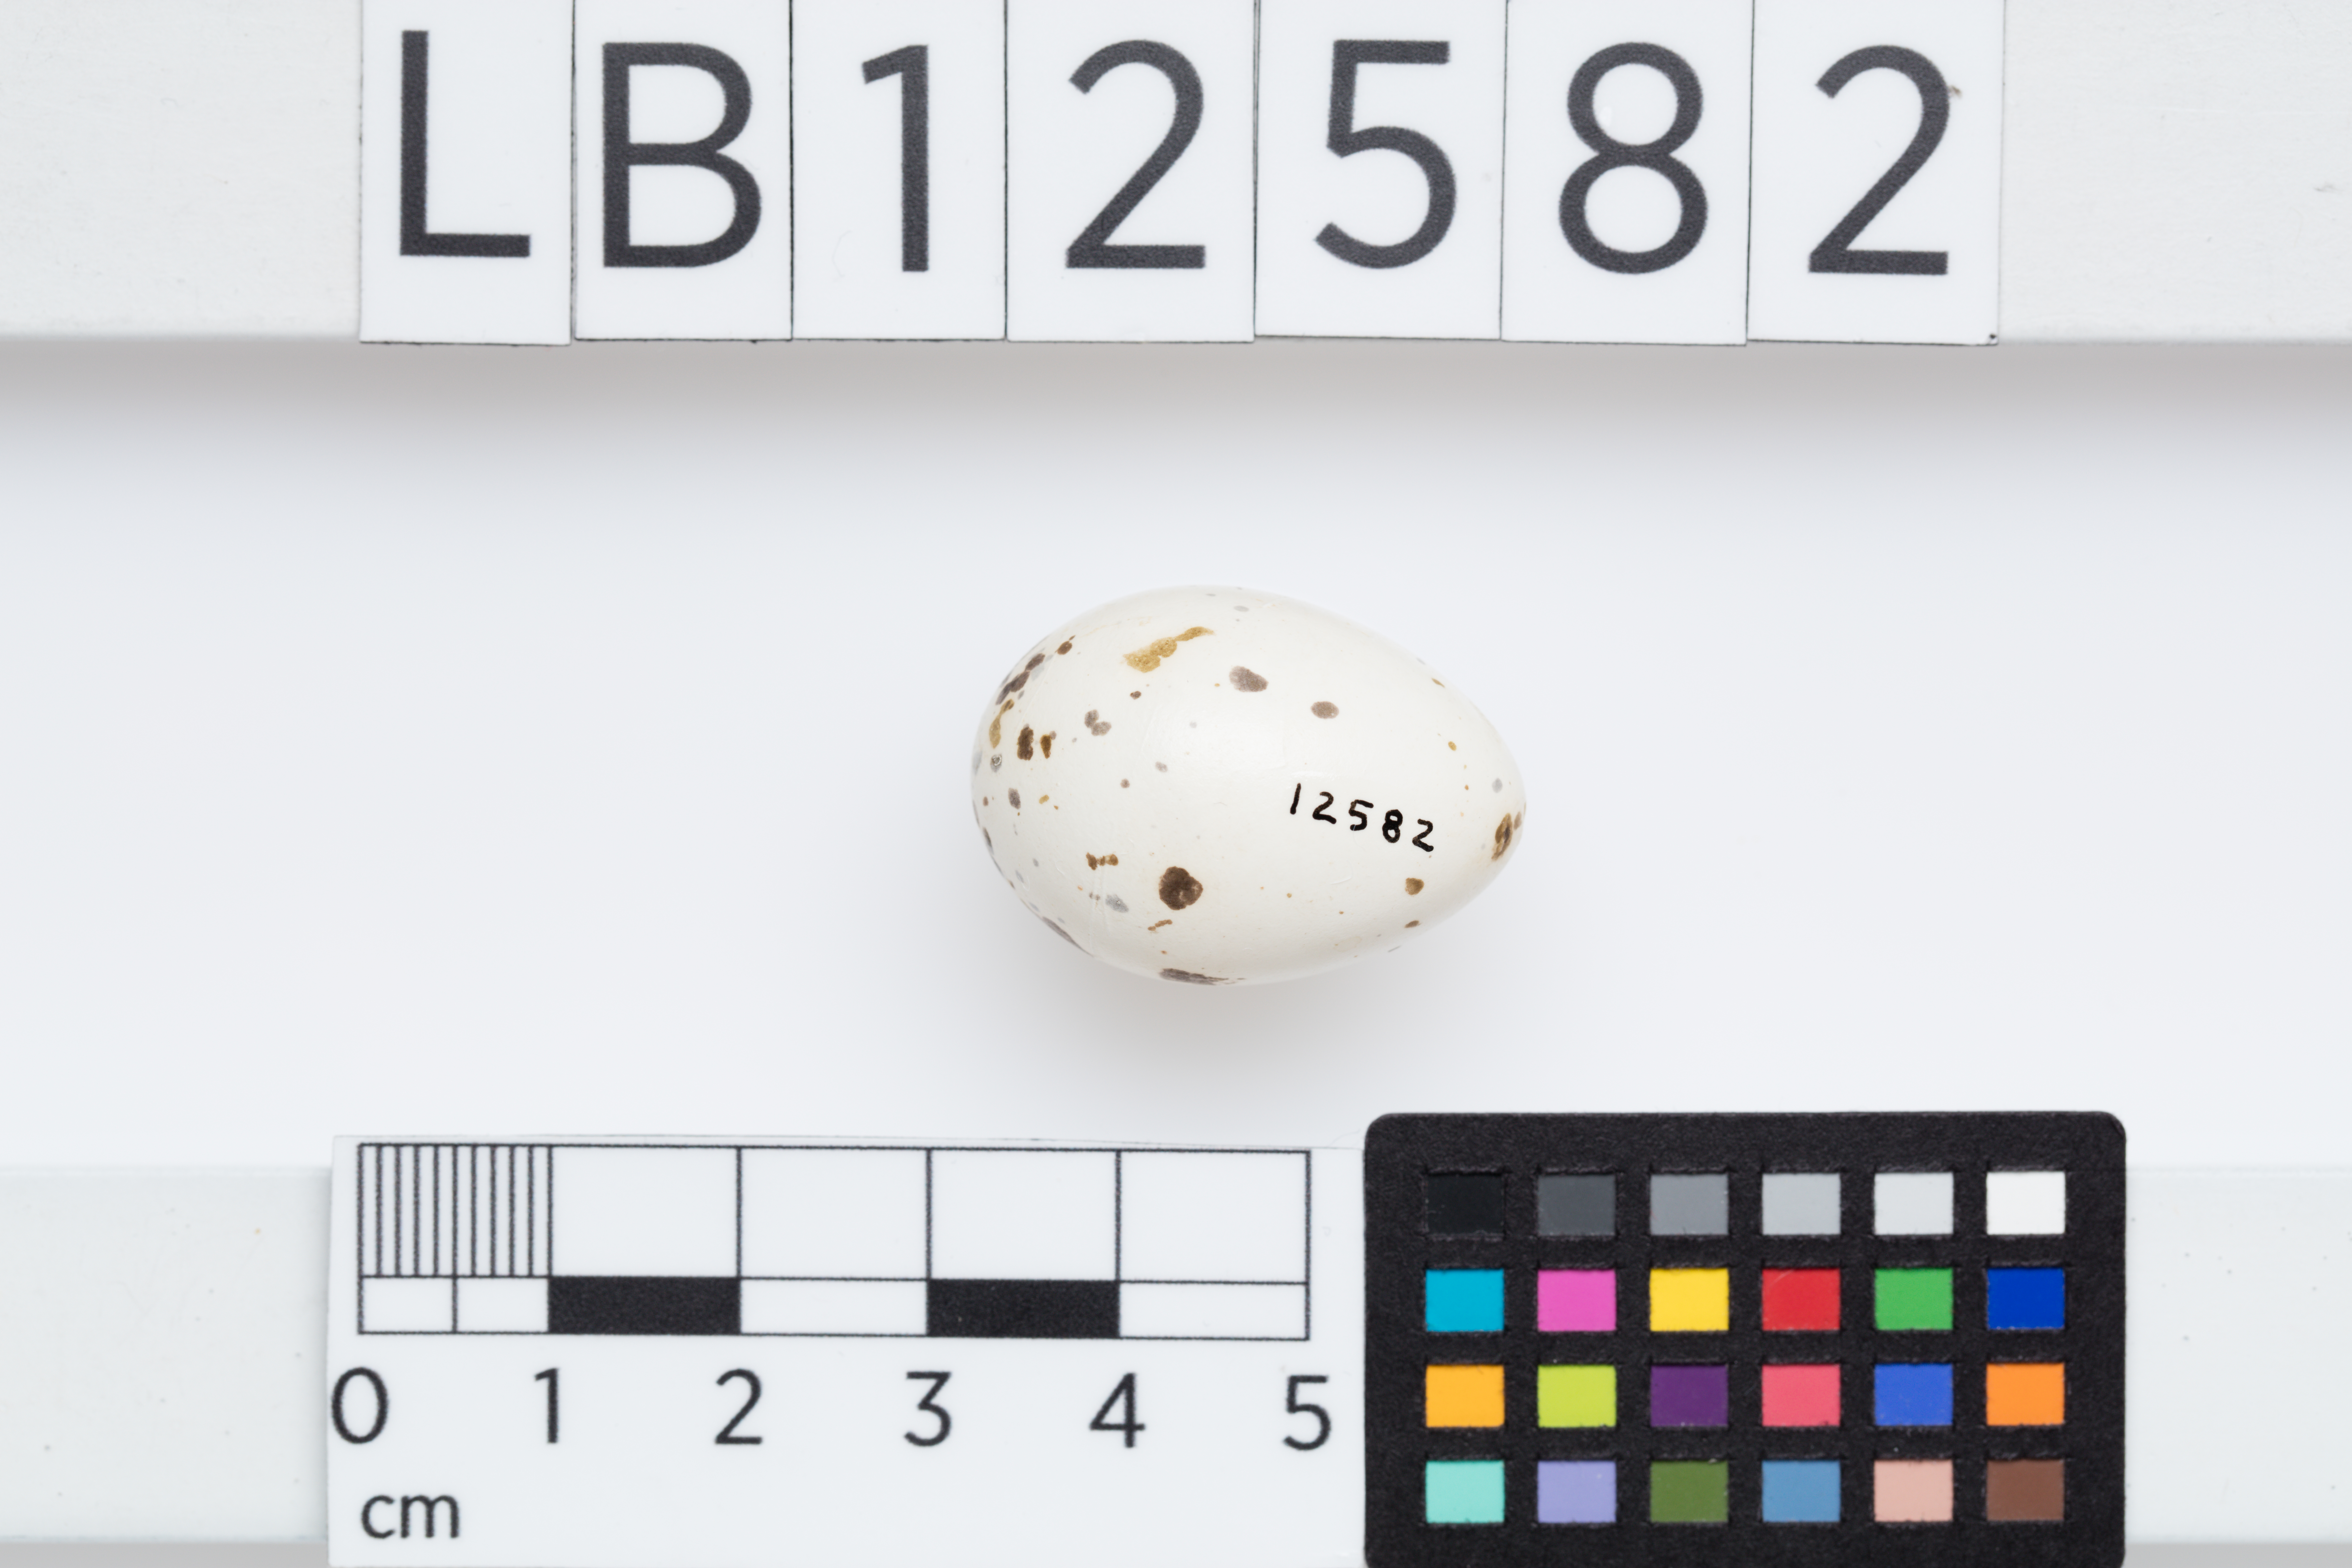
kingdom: Animalia
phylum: Chordata
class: Aves
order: Passeriformes
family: Corcoracidae
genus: Struthidea
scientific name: Struthidea cinerea
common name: Apostlebird
